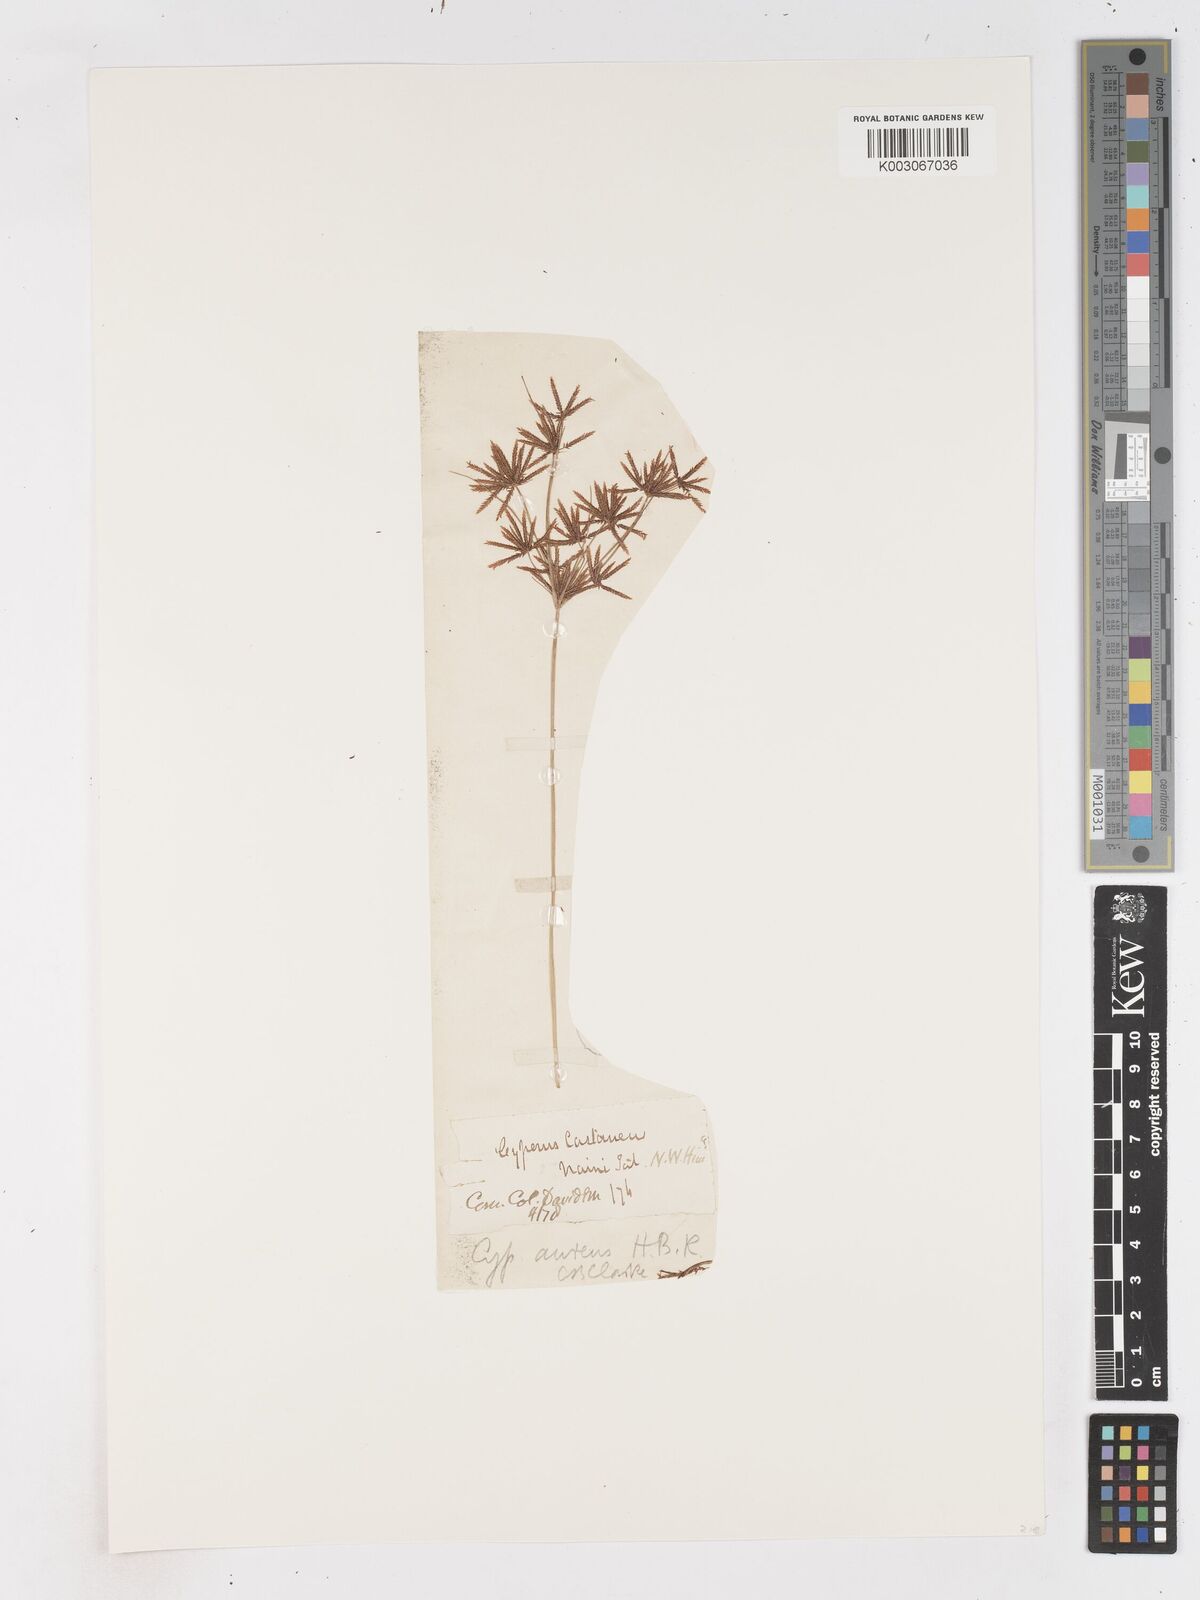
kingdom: Plantae
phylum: Tracheophyta
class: Liliopsida
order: Poales
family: Cyperaceae
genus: Cyperus
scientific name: Cyperus castaneus
